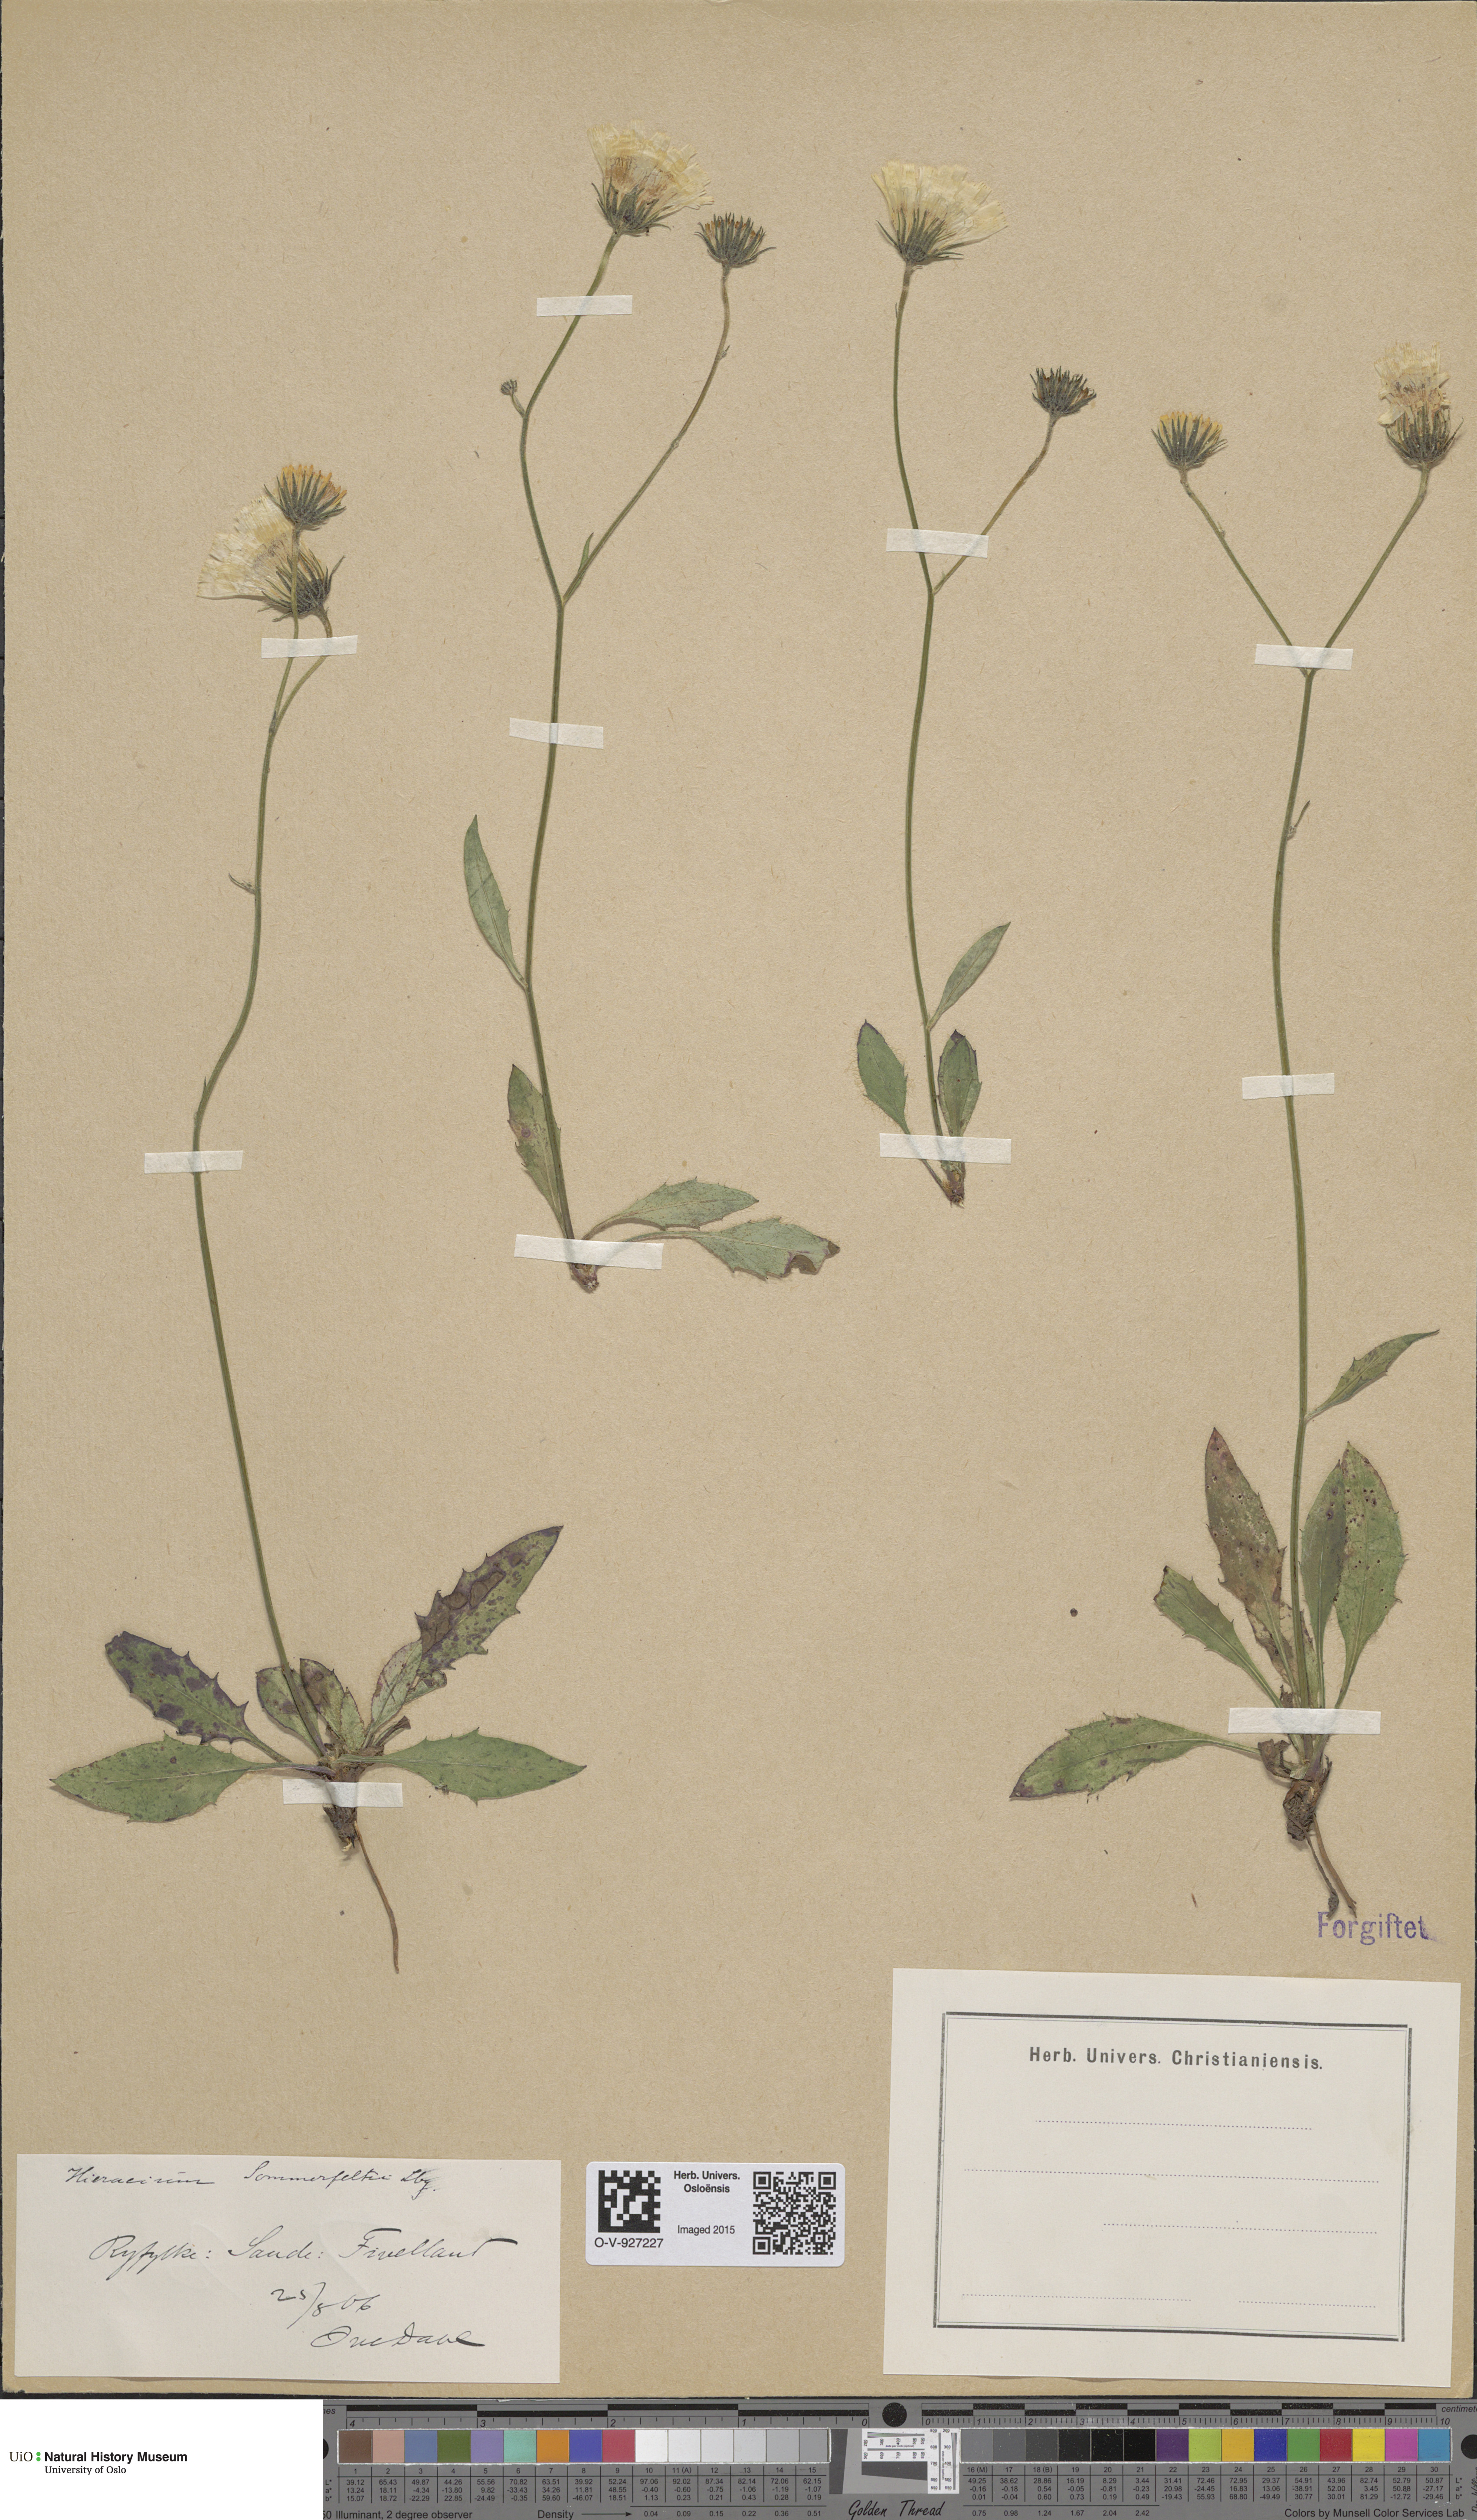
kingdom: Plantae
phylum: Tracheophyta
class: Magnoliopsida
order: Asterales
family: Asteraceae
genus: Hieracium
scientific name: Hieracium sommerfeltii
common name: Sommerfelt's hawkweed
